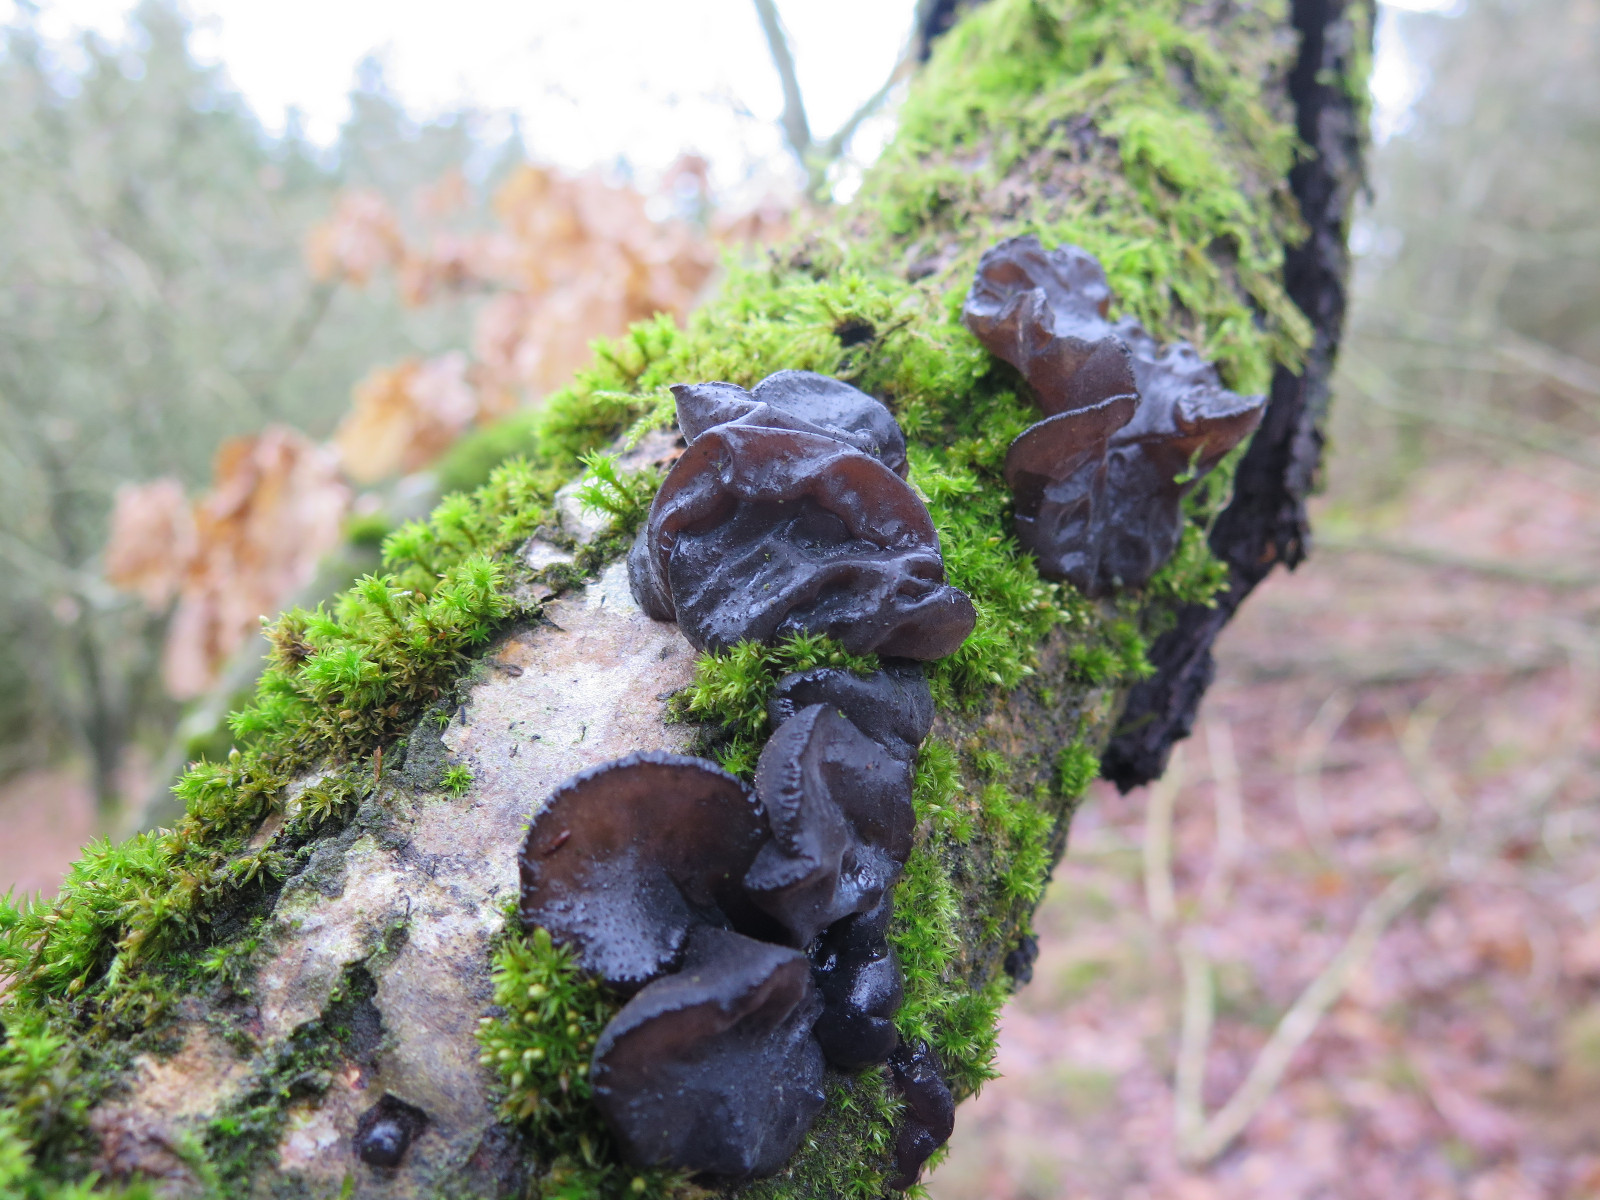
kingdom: Fungi
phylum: Basidiomycota
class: Agaricomycetes
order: Auriculariales
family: Auriculariaceae
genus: Exidia
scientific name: Exidia glandulosa
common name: ege-bævretop
